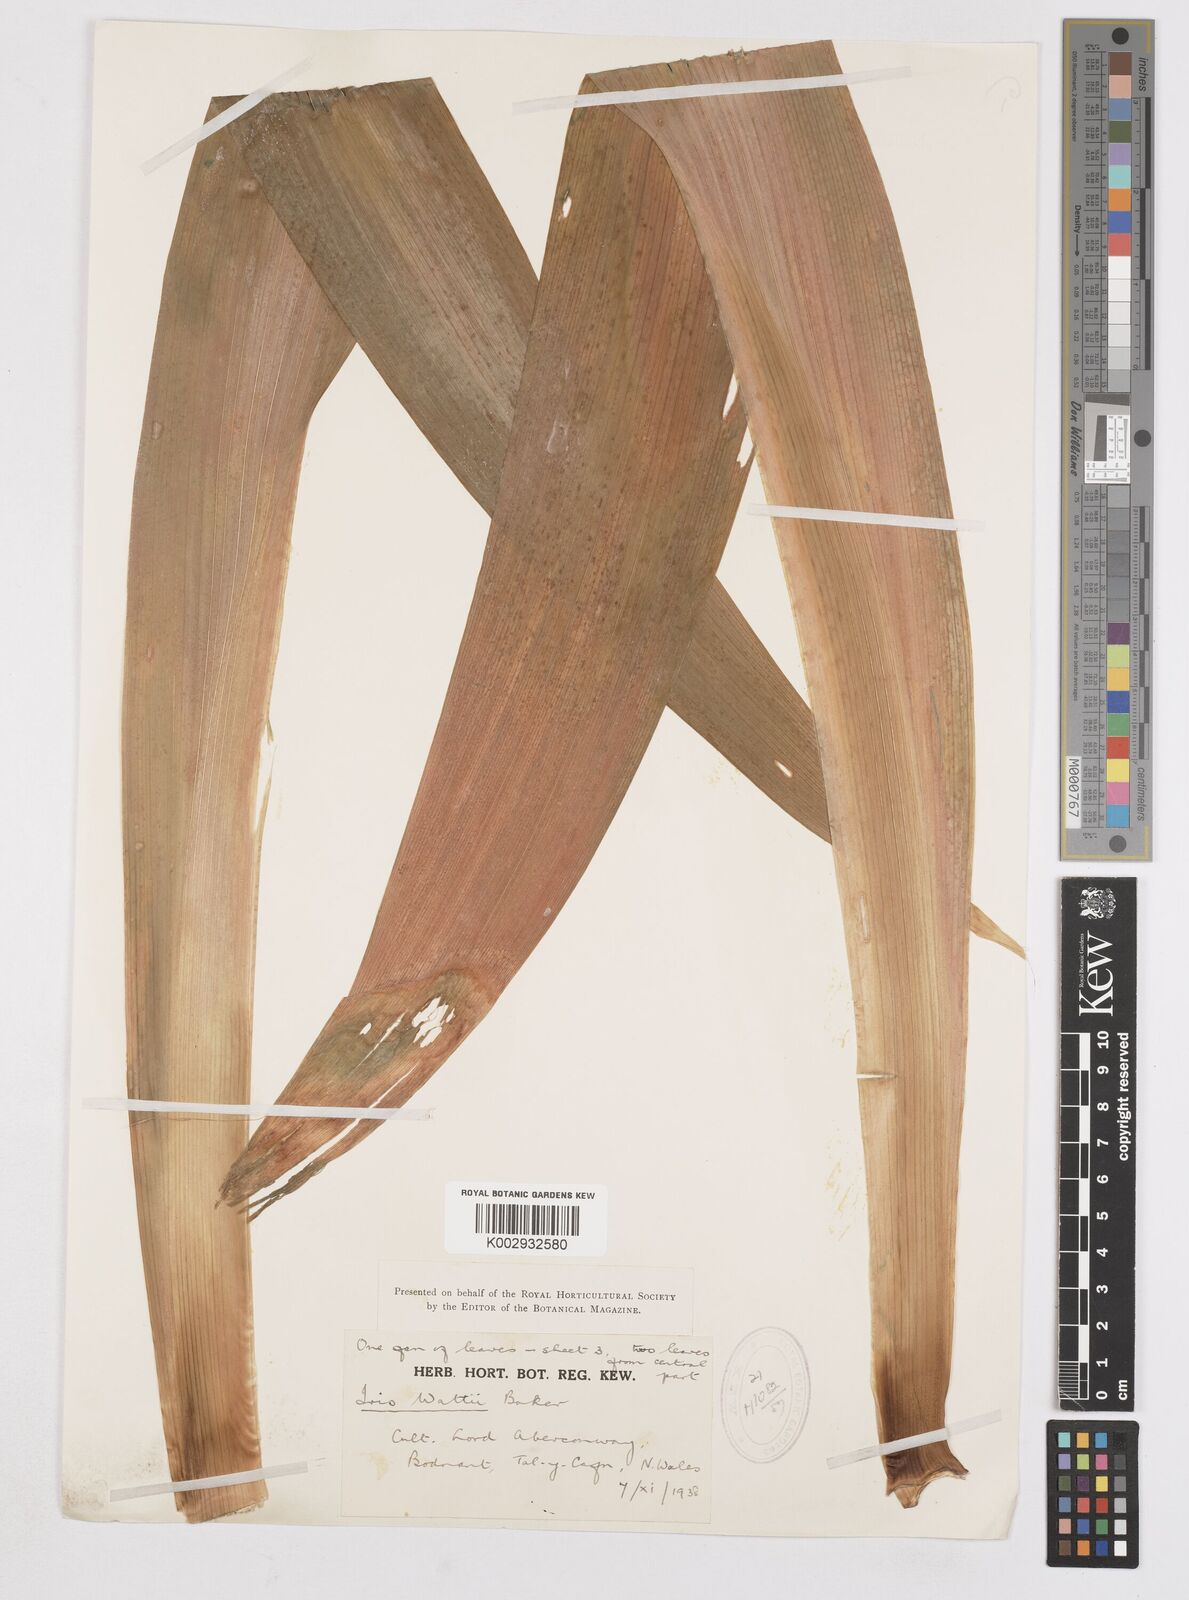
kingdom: Plantae
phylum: Tracheophyta
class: Liliopsida
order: Asparagales
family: Iridaceae
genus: Iris
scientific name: Iris wattii
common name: Fan-shape iris
